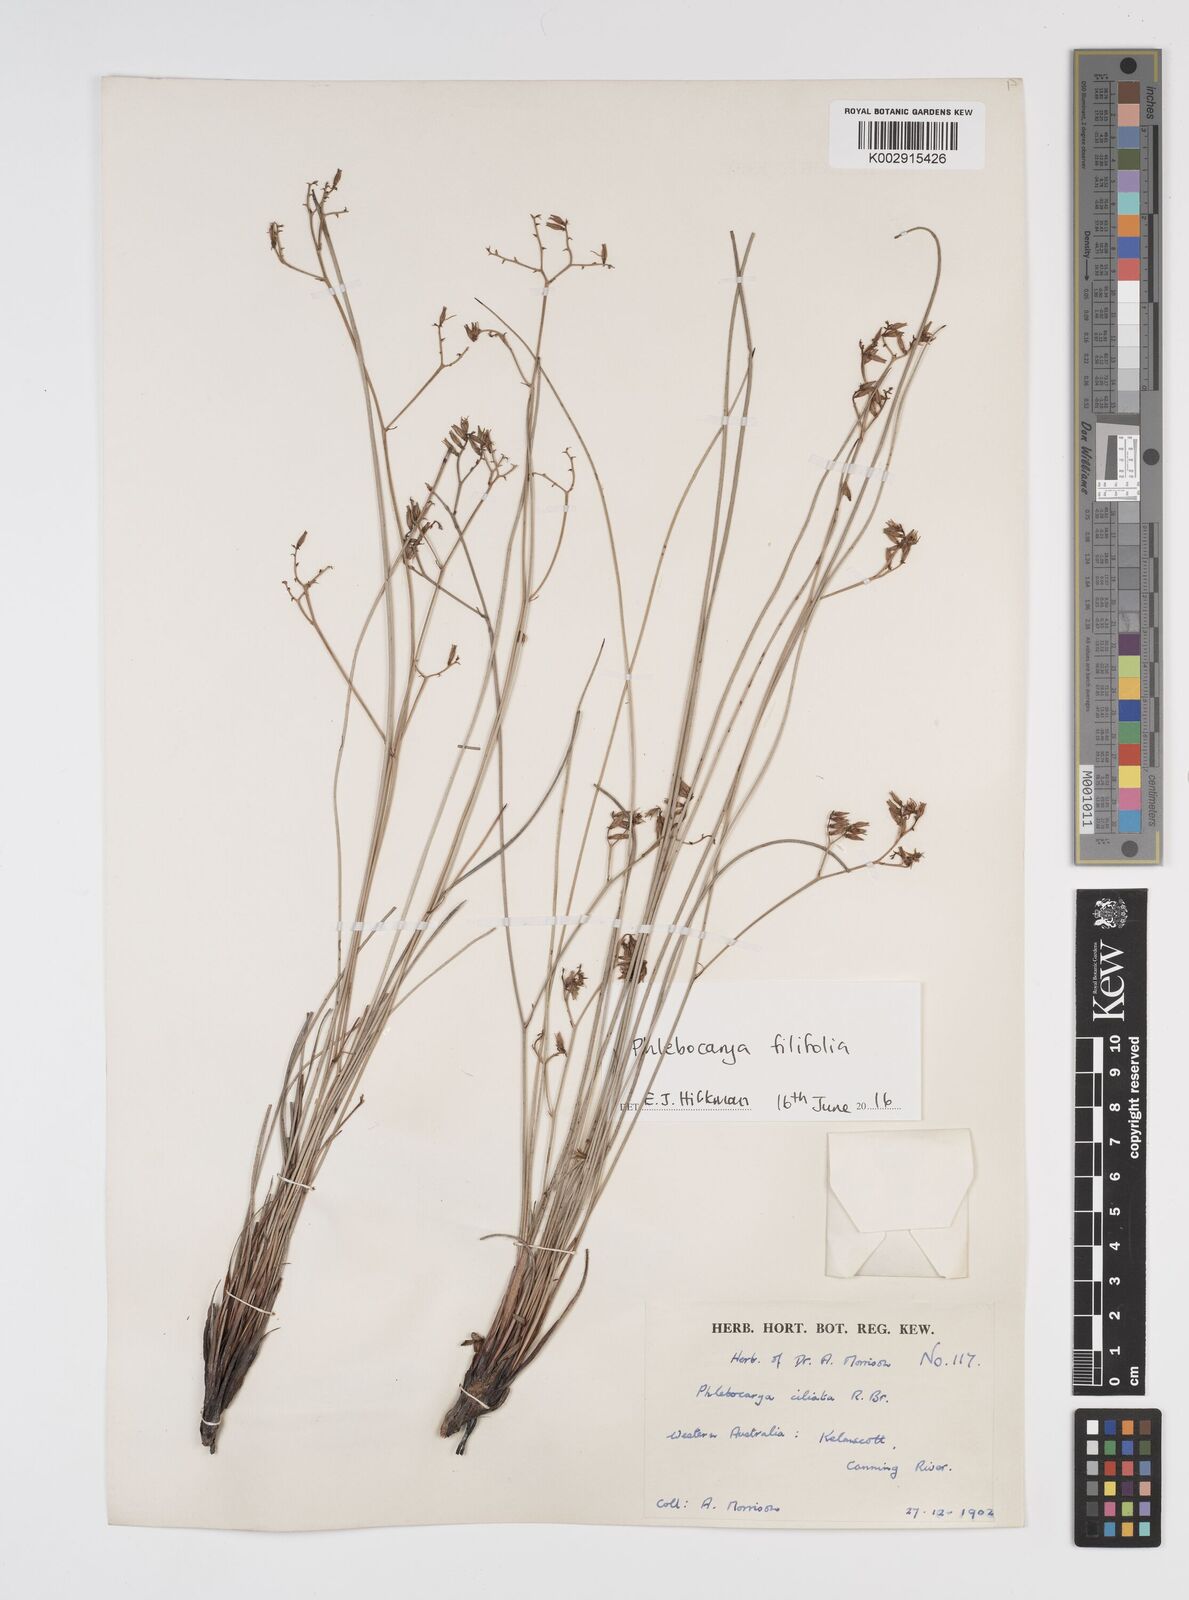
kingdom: Plantae
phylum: Tracheophyta
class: Liliopsida
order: Commelinales
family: Haemodoraceae
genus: Phlebocarya
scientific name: Phlebocarya ciliata
